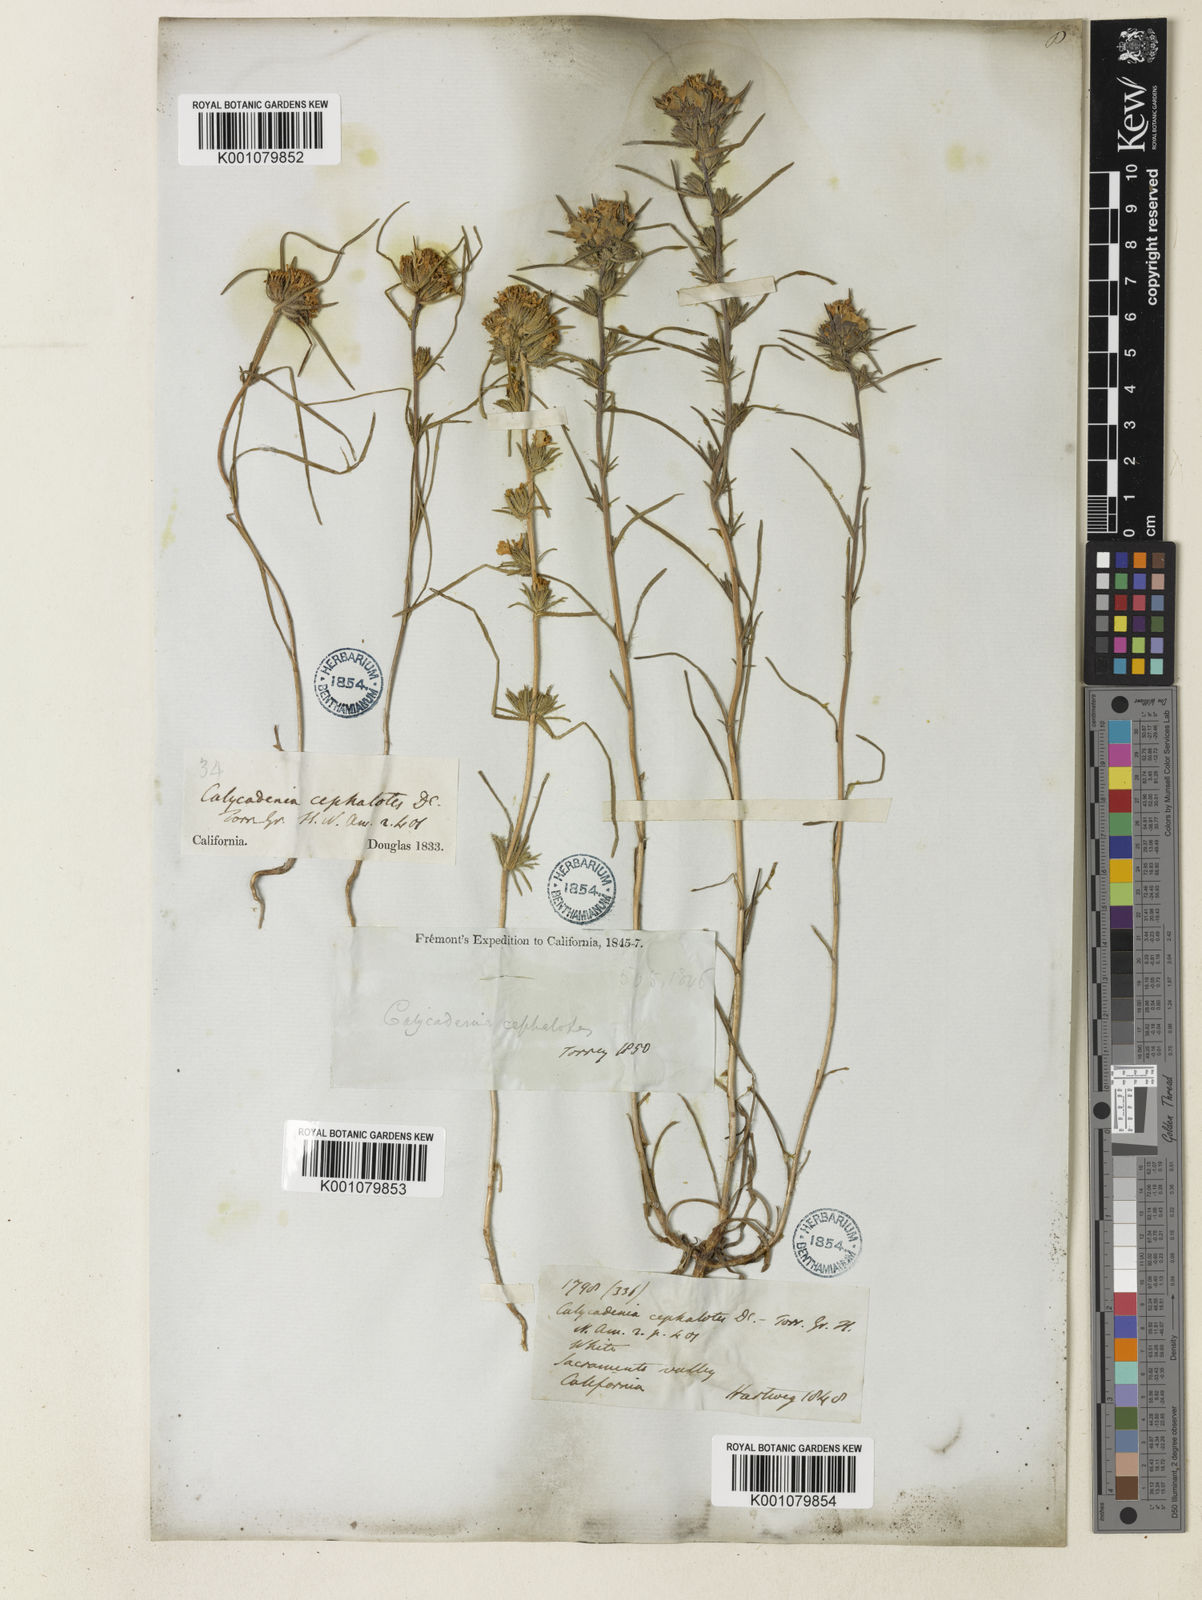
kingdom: Plantae
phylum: Tracheophyta
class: Magnoliopsida
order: Asterales
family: Asteraceae
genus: Calycadenia
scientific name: Calycadenia multiglandulosa
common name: Sticky calycadenia
